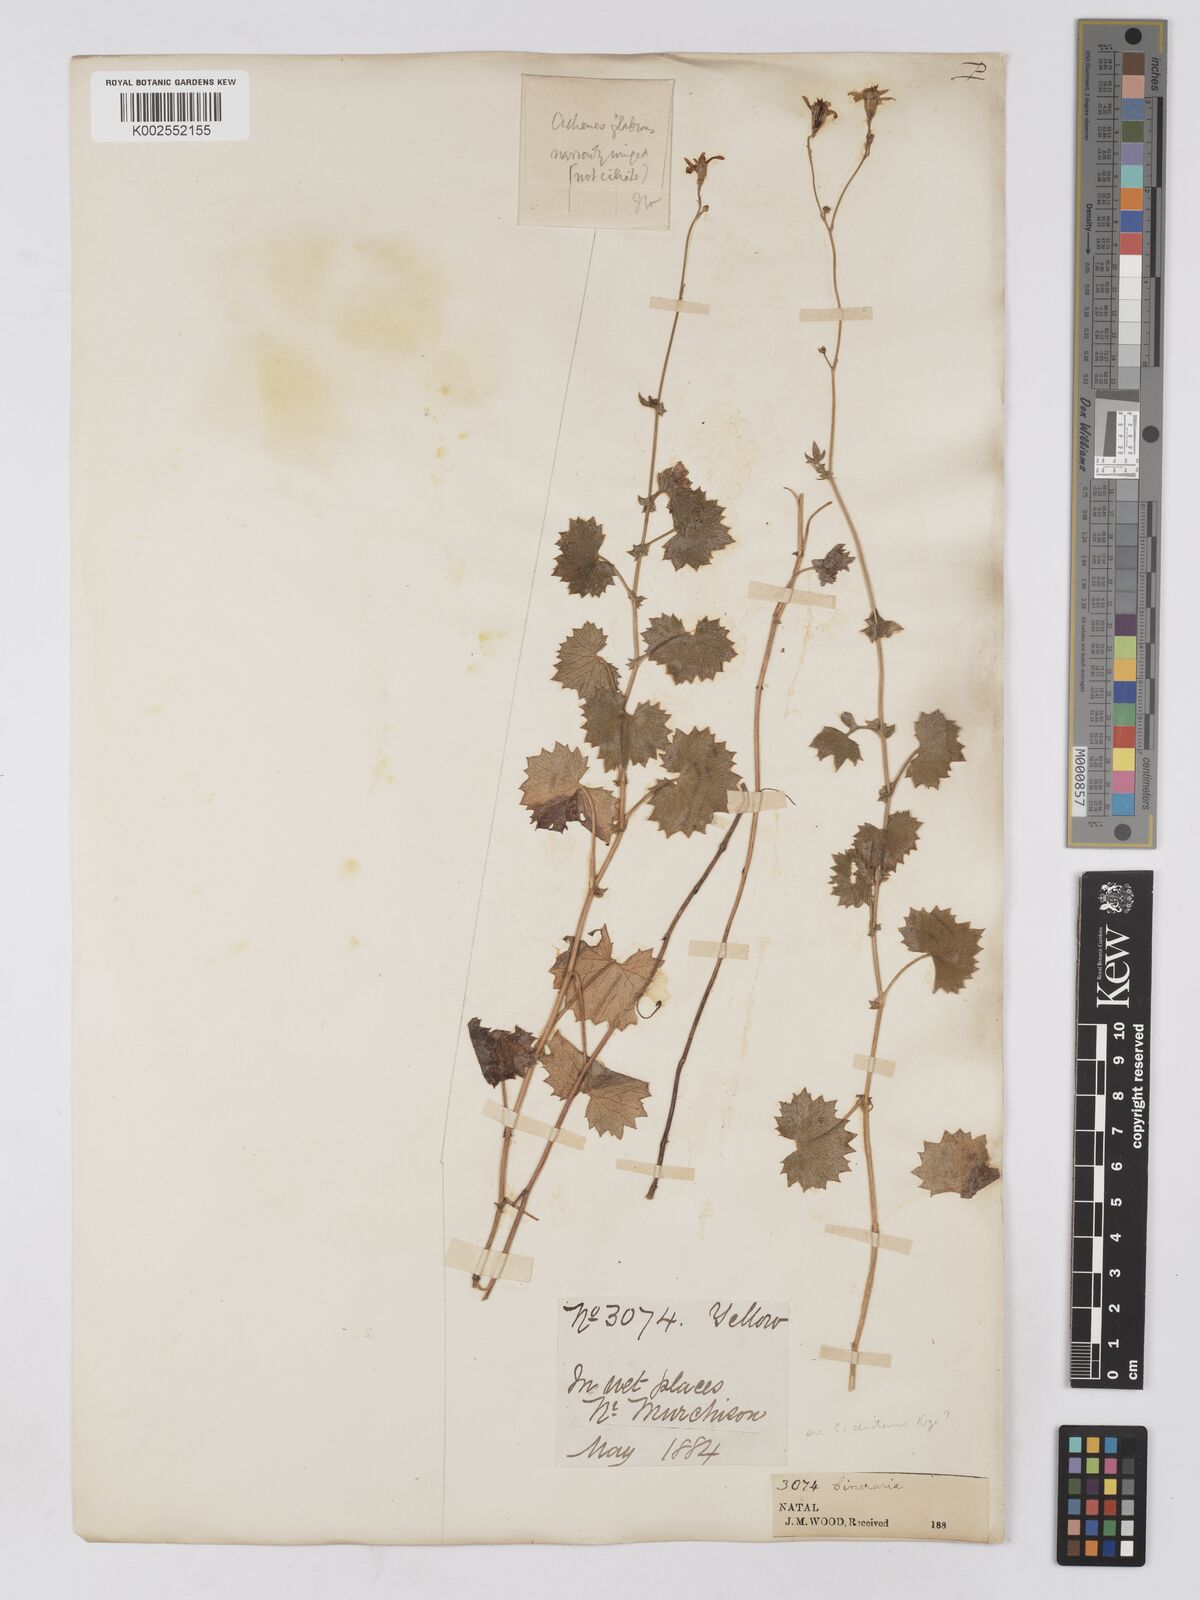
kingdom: Plantae
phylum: Tracheophyta
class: Magnoliopsida
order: Asterales
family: Asteraceae
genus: Cineraria
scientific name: Cineraria deltoidea
